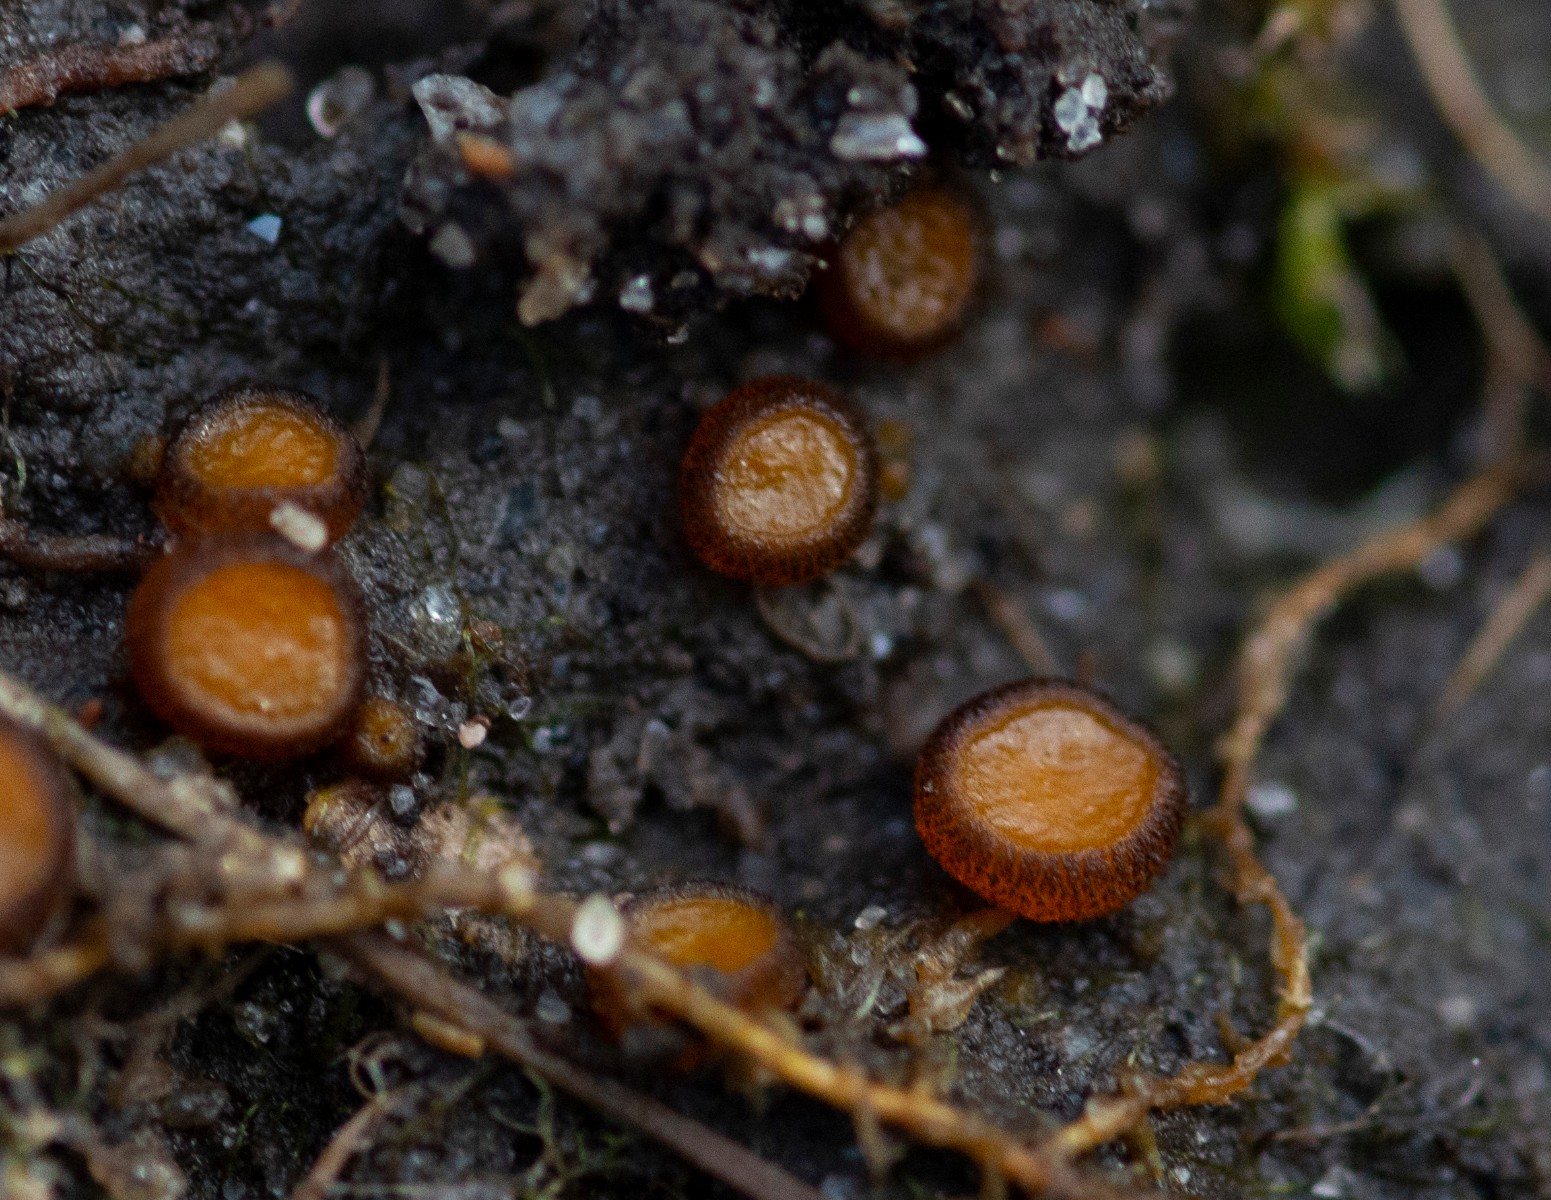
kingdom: Fungi
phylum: Ascomycota
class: Pezizomycetes
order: Pezizales
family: Pyronemataceae
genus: Melastiza
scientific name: Melastiza cornubiensis
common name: mørkrandet rødbæger
